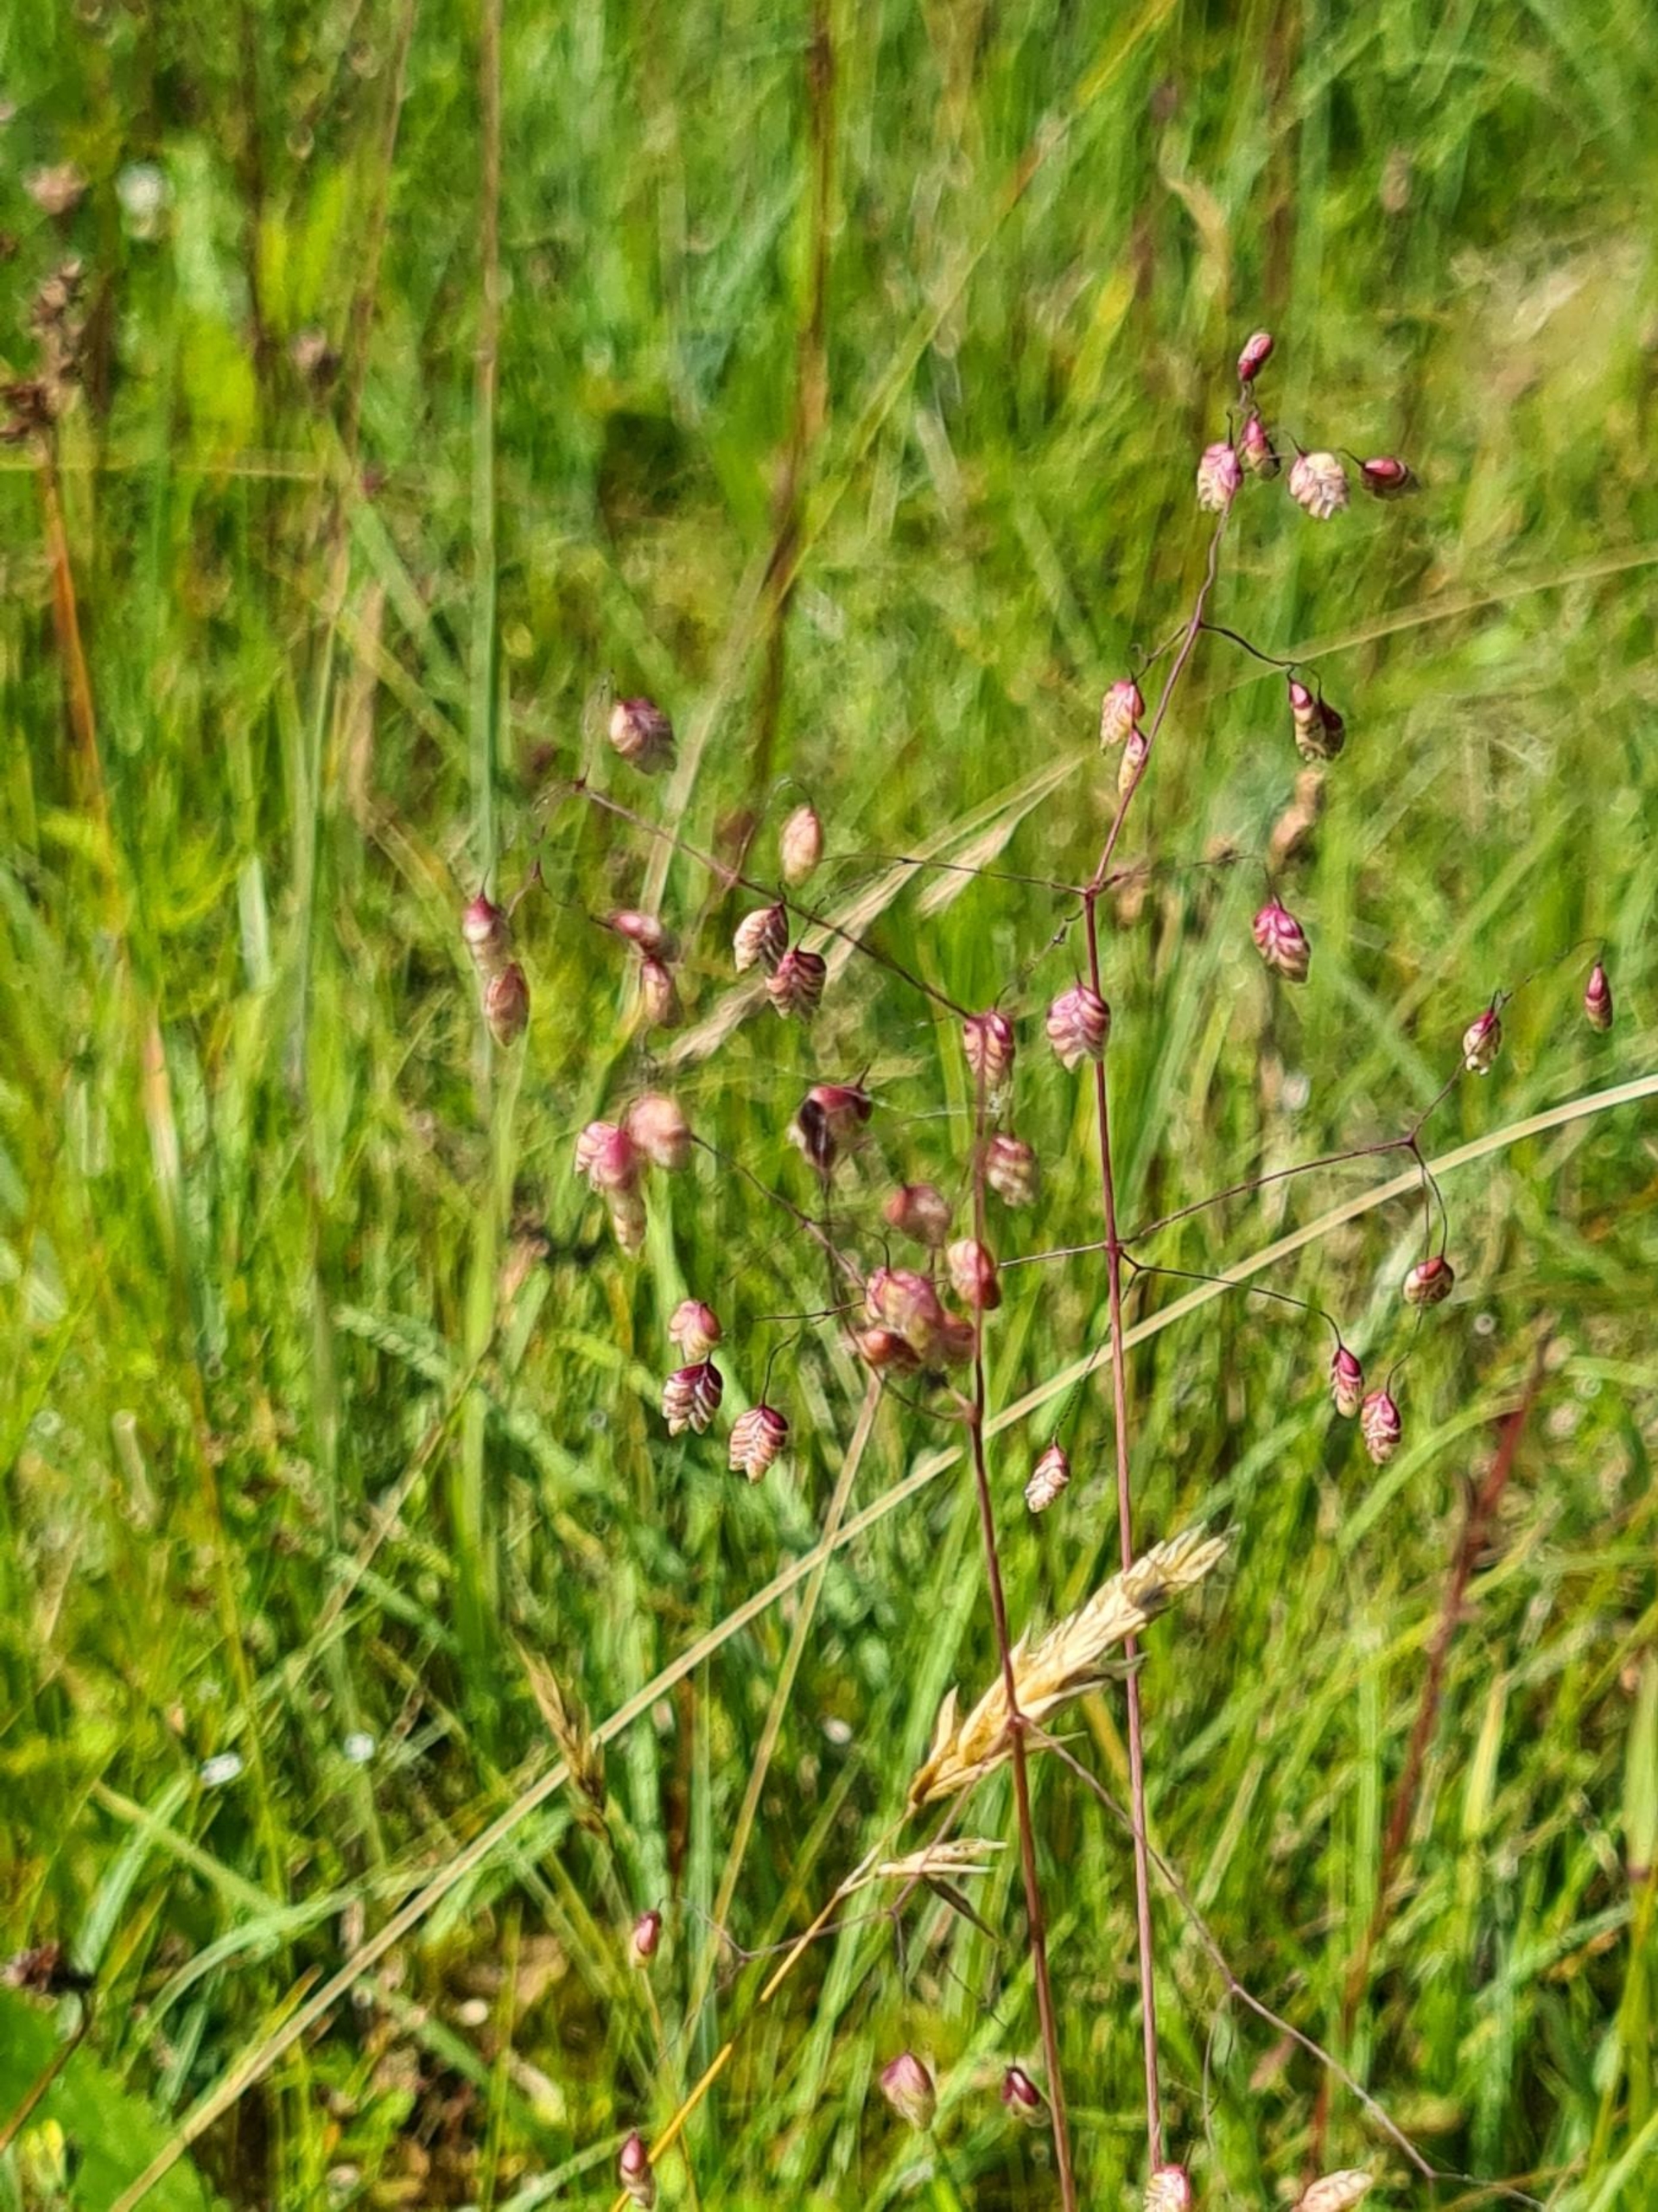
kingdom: Plantae
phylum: Tracheophyta
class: Liliopsida
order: Poales
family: Poaceae
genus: Briza
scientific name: Briza media
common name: Hjertegræs
